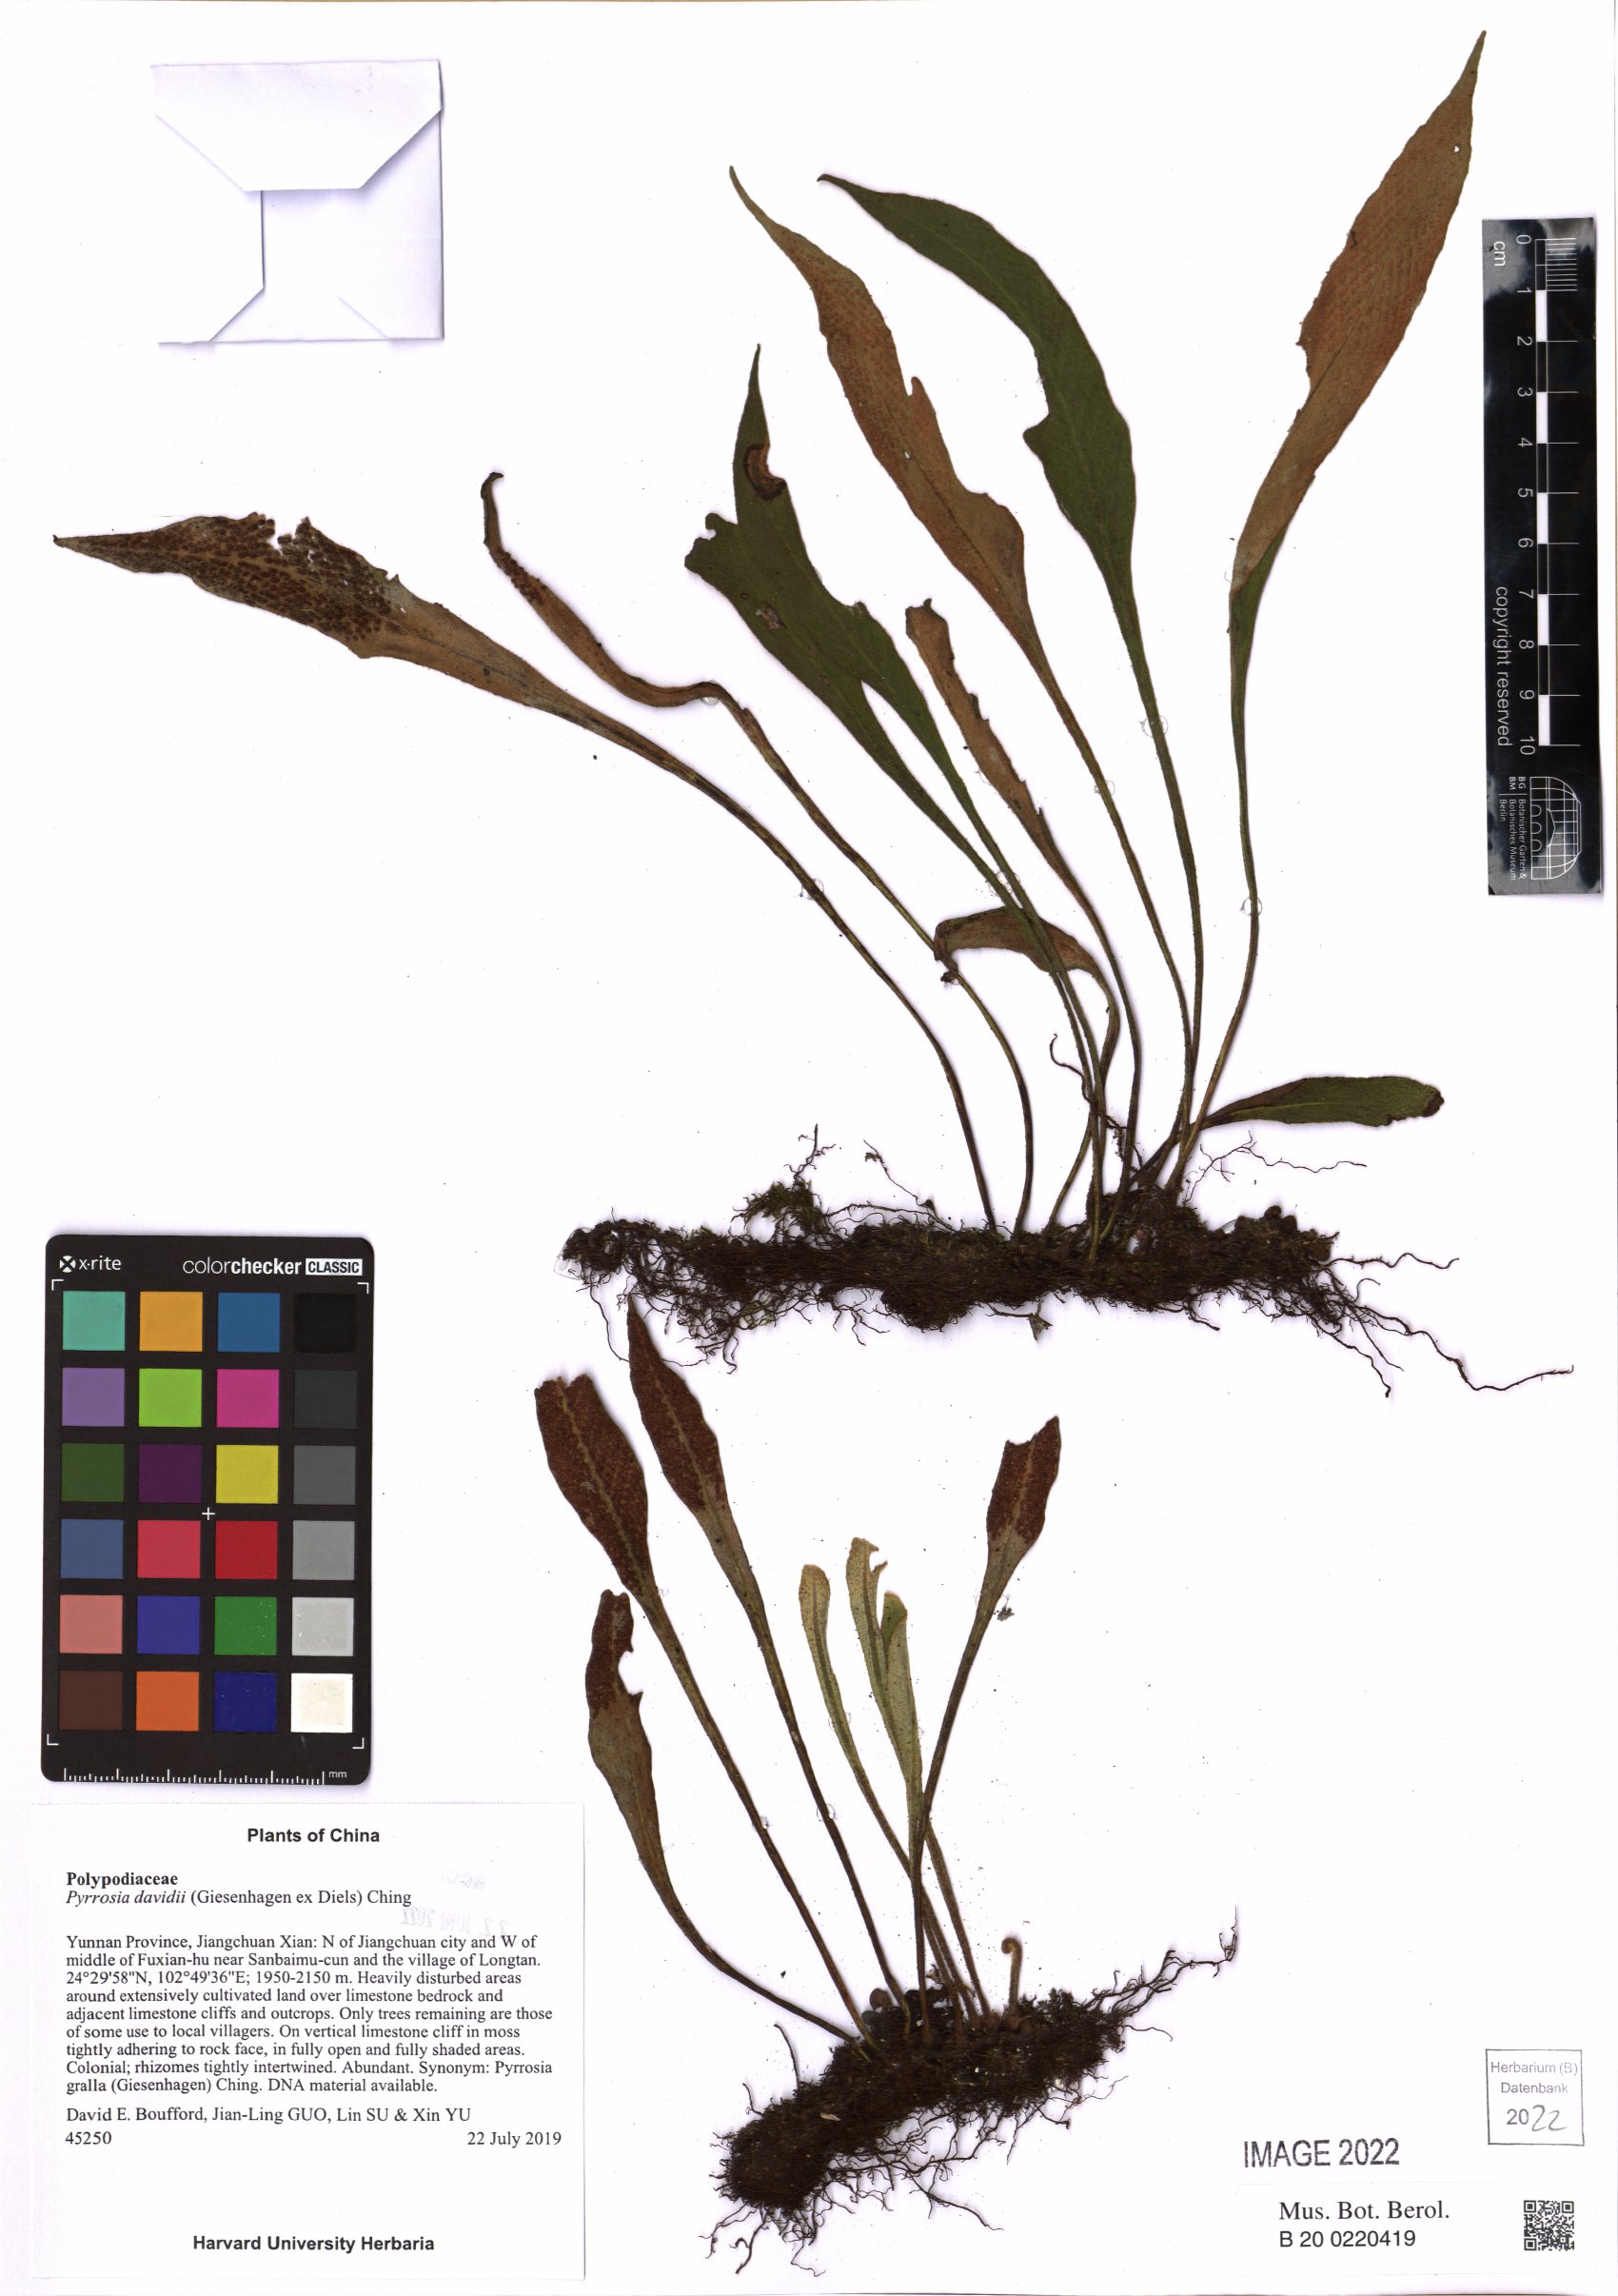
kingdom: Plantae
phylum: Tracheophyta
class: Polypodiopsida
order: Polypodiales
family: Polypodiaceae
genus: Pyrrosia
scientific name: Pyrrosia davidii
